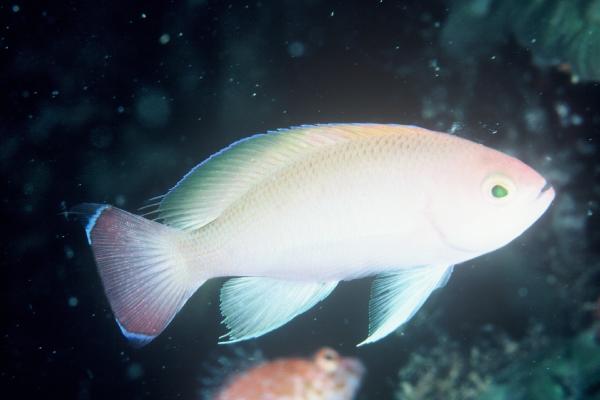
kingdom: Animalia
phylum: Chordata
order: Perciformes
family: Serranidae
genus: Pseudanthias
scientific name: Pseudanthias hypselosoma
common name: Pink basslet
